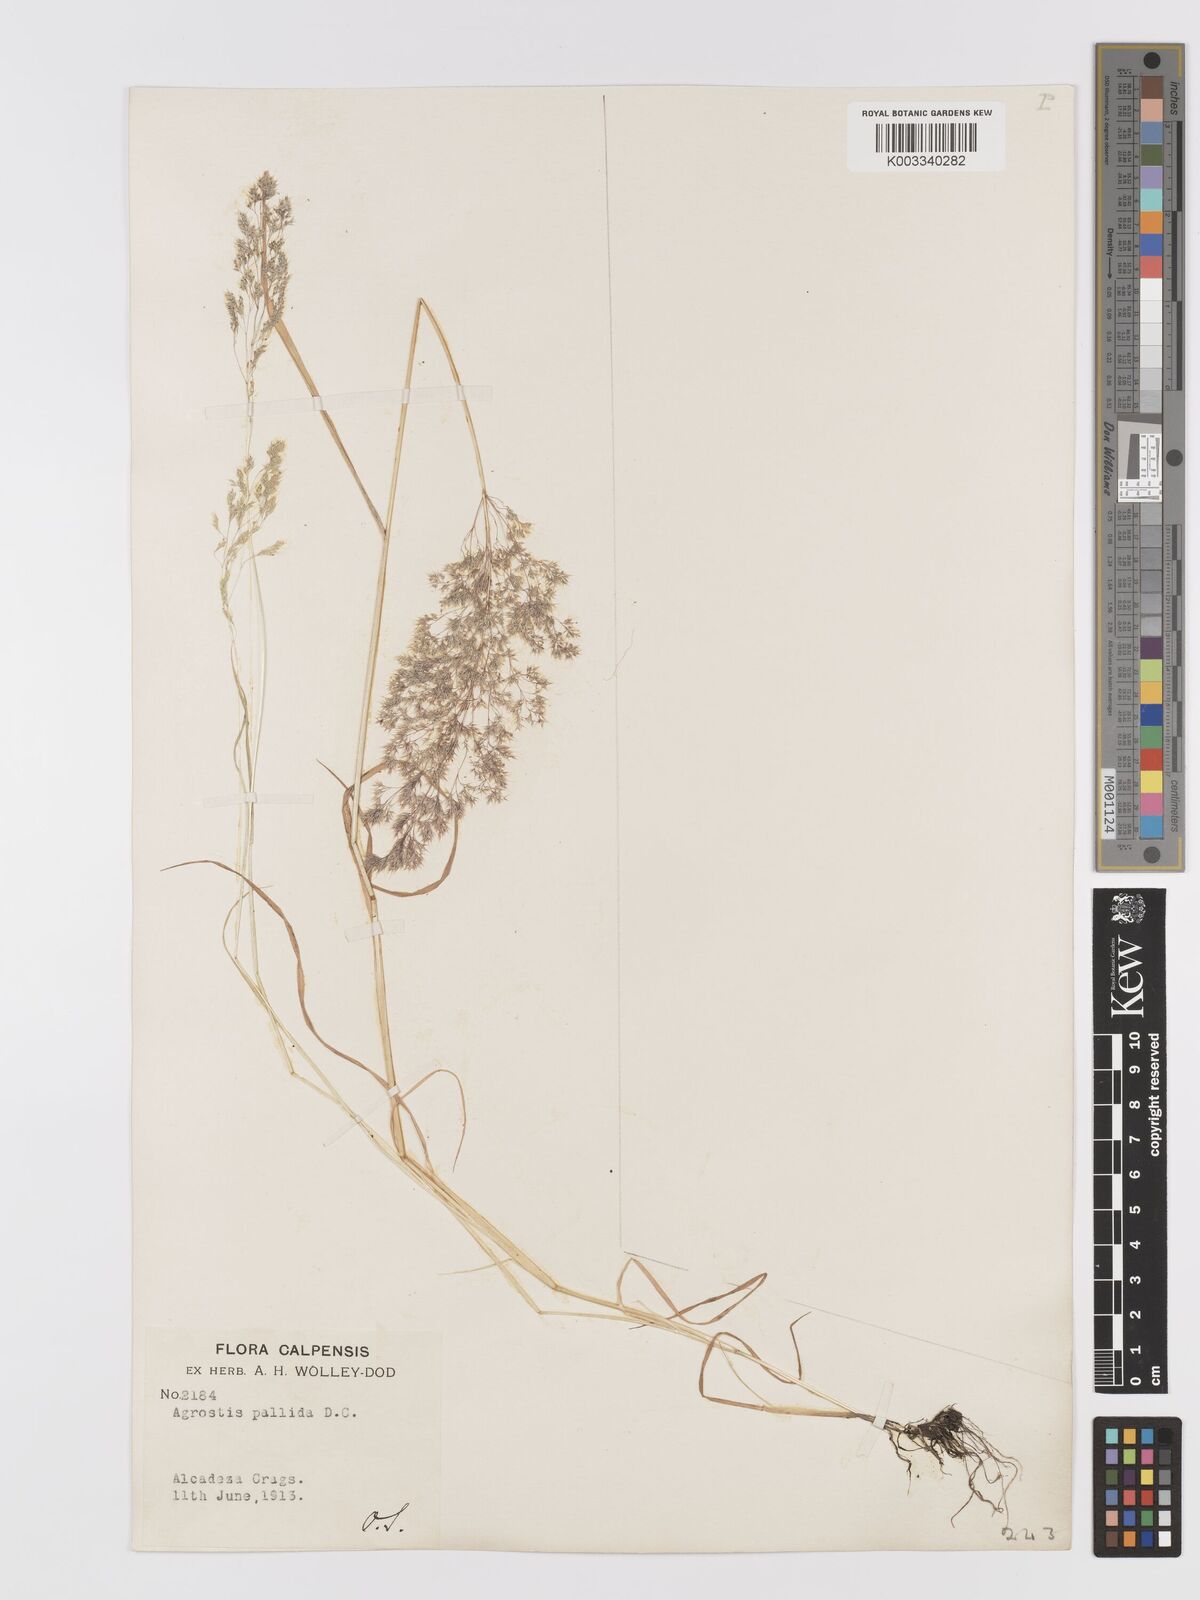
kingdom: Plantae
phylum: Tracheophyta
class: Liliopsida
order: Poales
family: Poaceae
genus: Agrostis
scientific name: Agrostis pourretii
